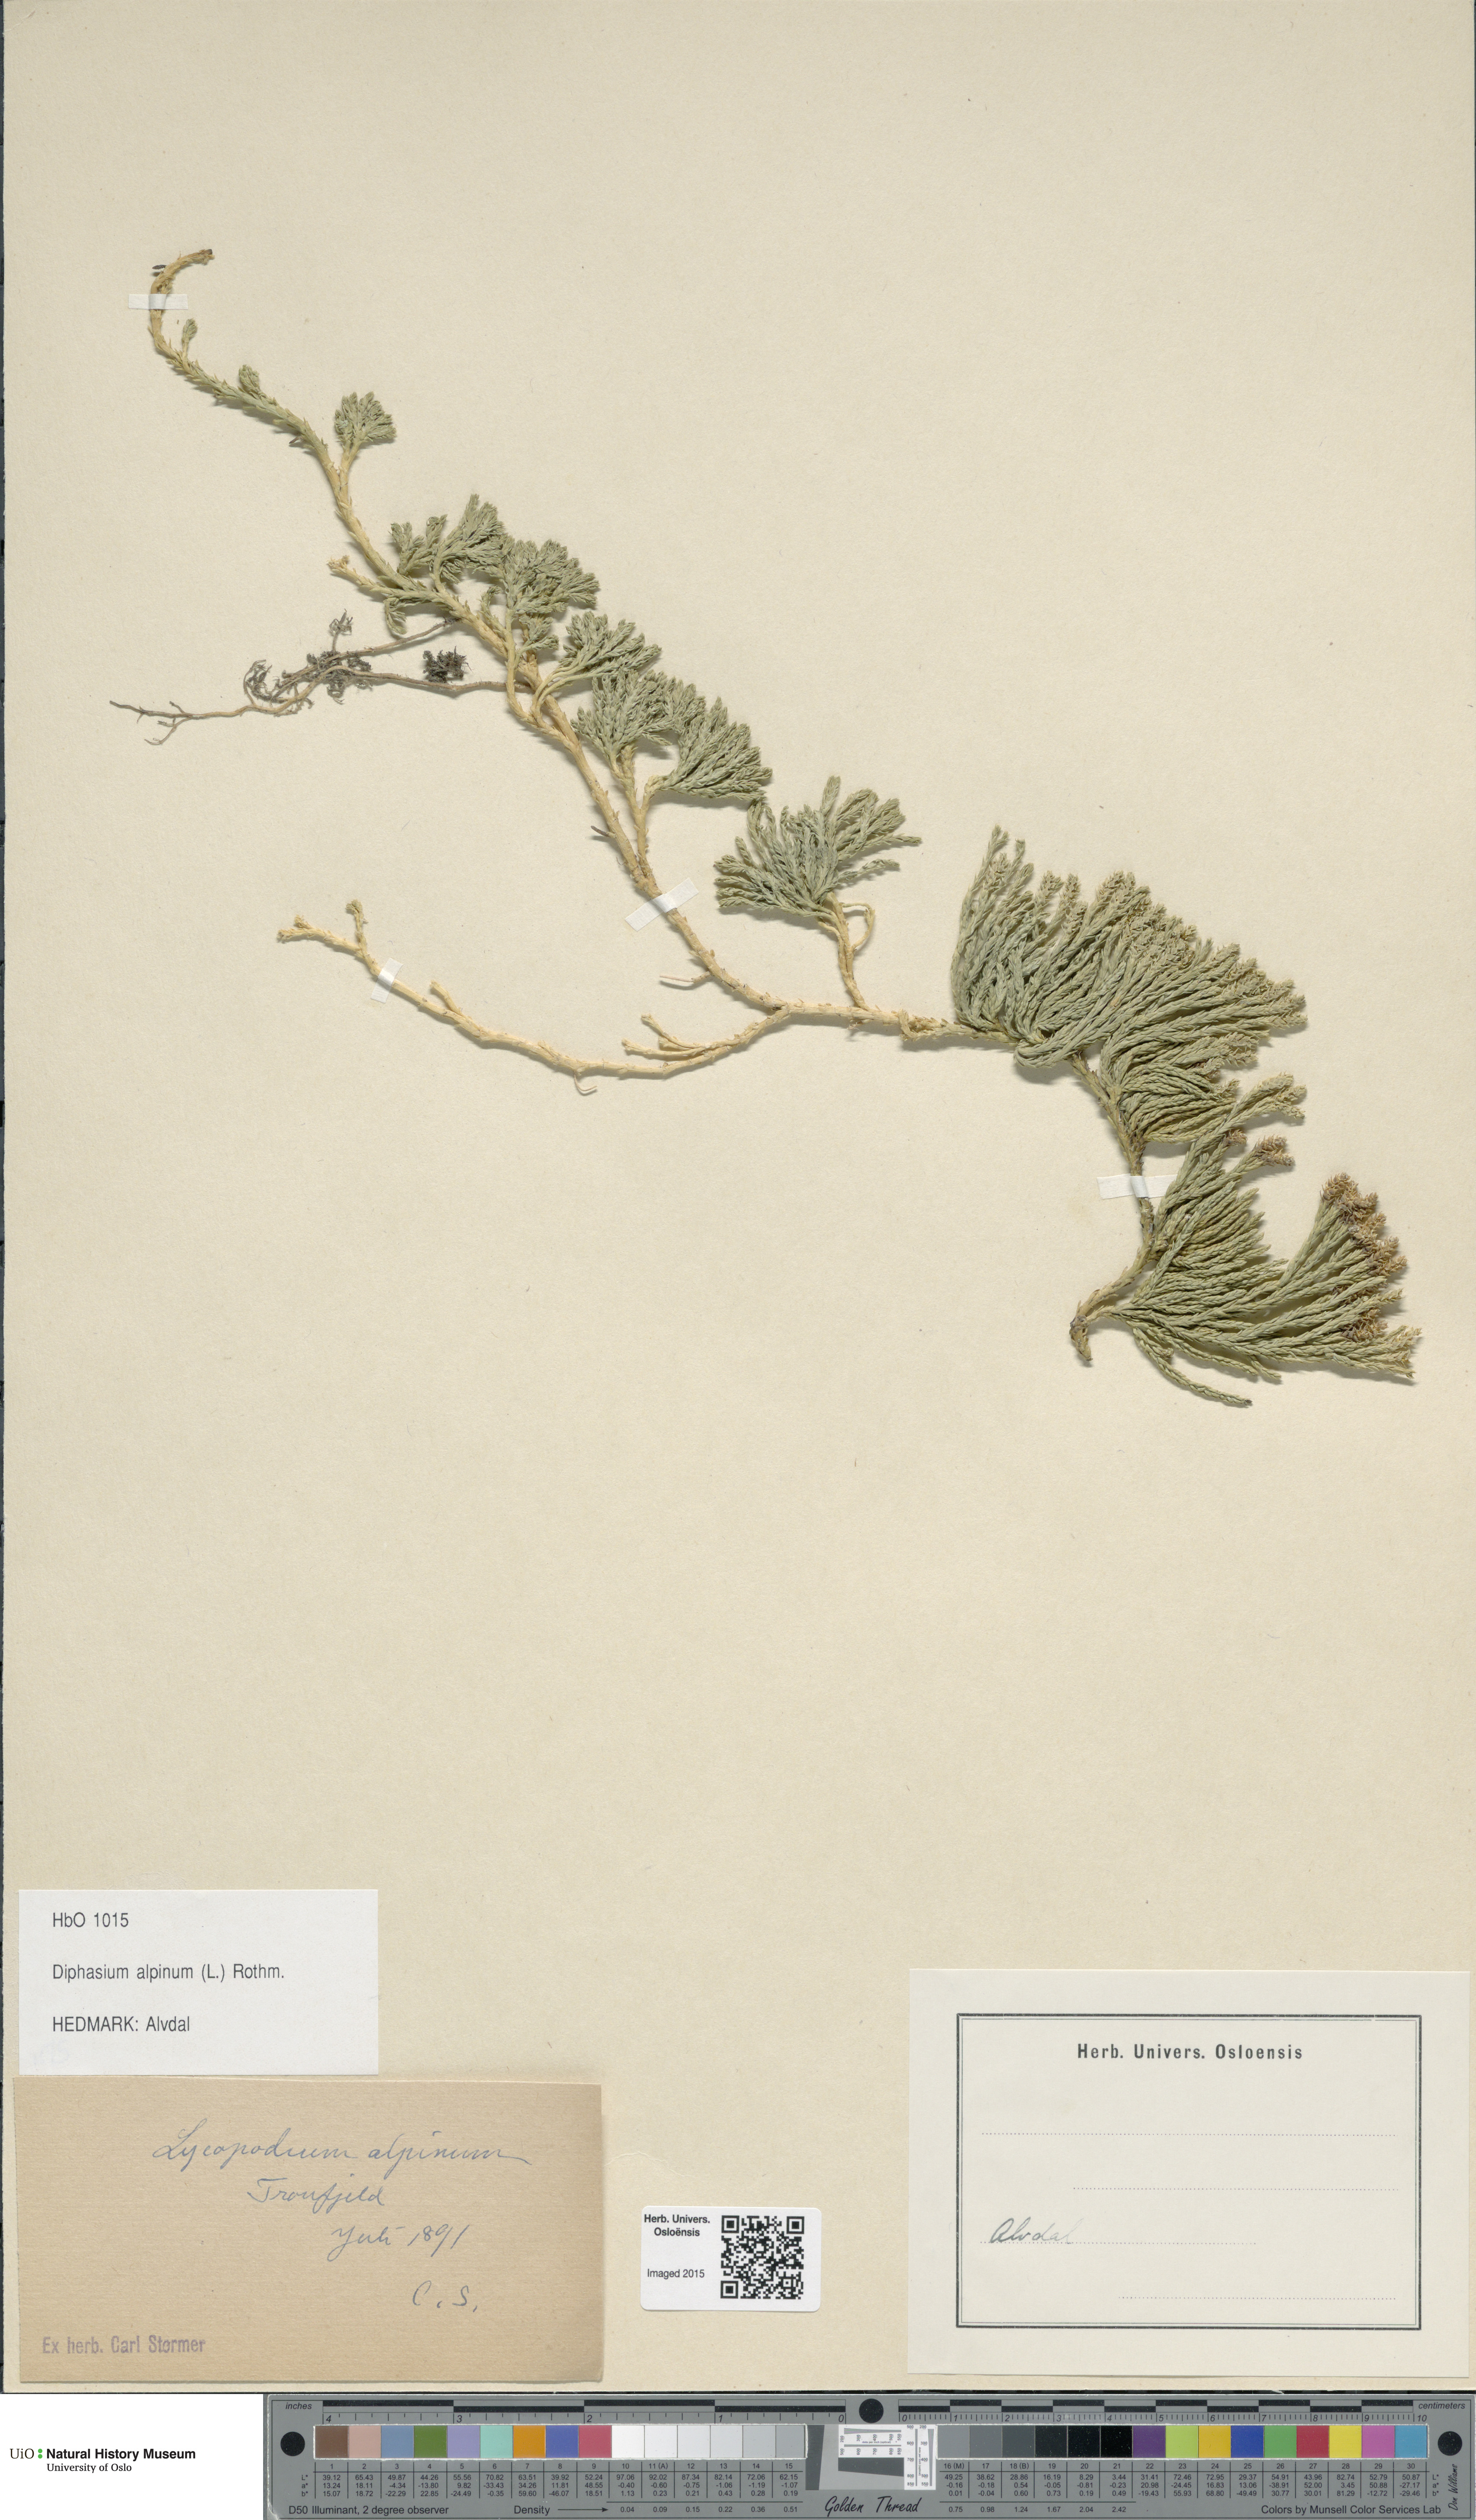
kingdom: Plantae
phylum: Tracheophyta
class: Lycopodiopsida
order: Lycopodiales
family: Lycopodiaceae
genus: Diphasiastrum
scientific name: Diphasiastrum alpinum
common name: Alpine clubmoss
